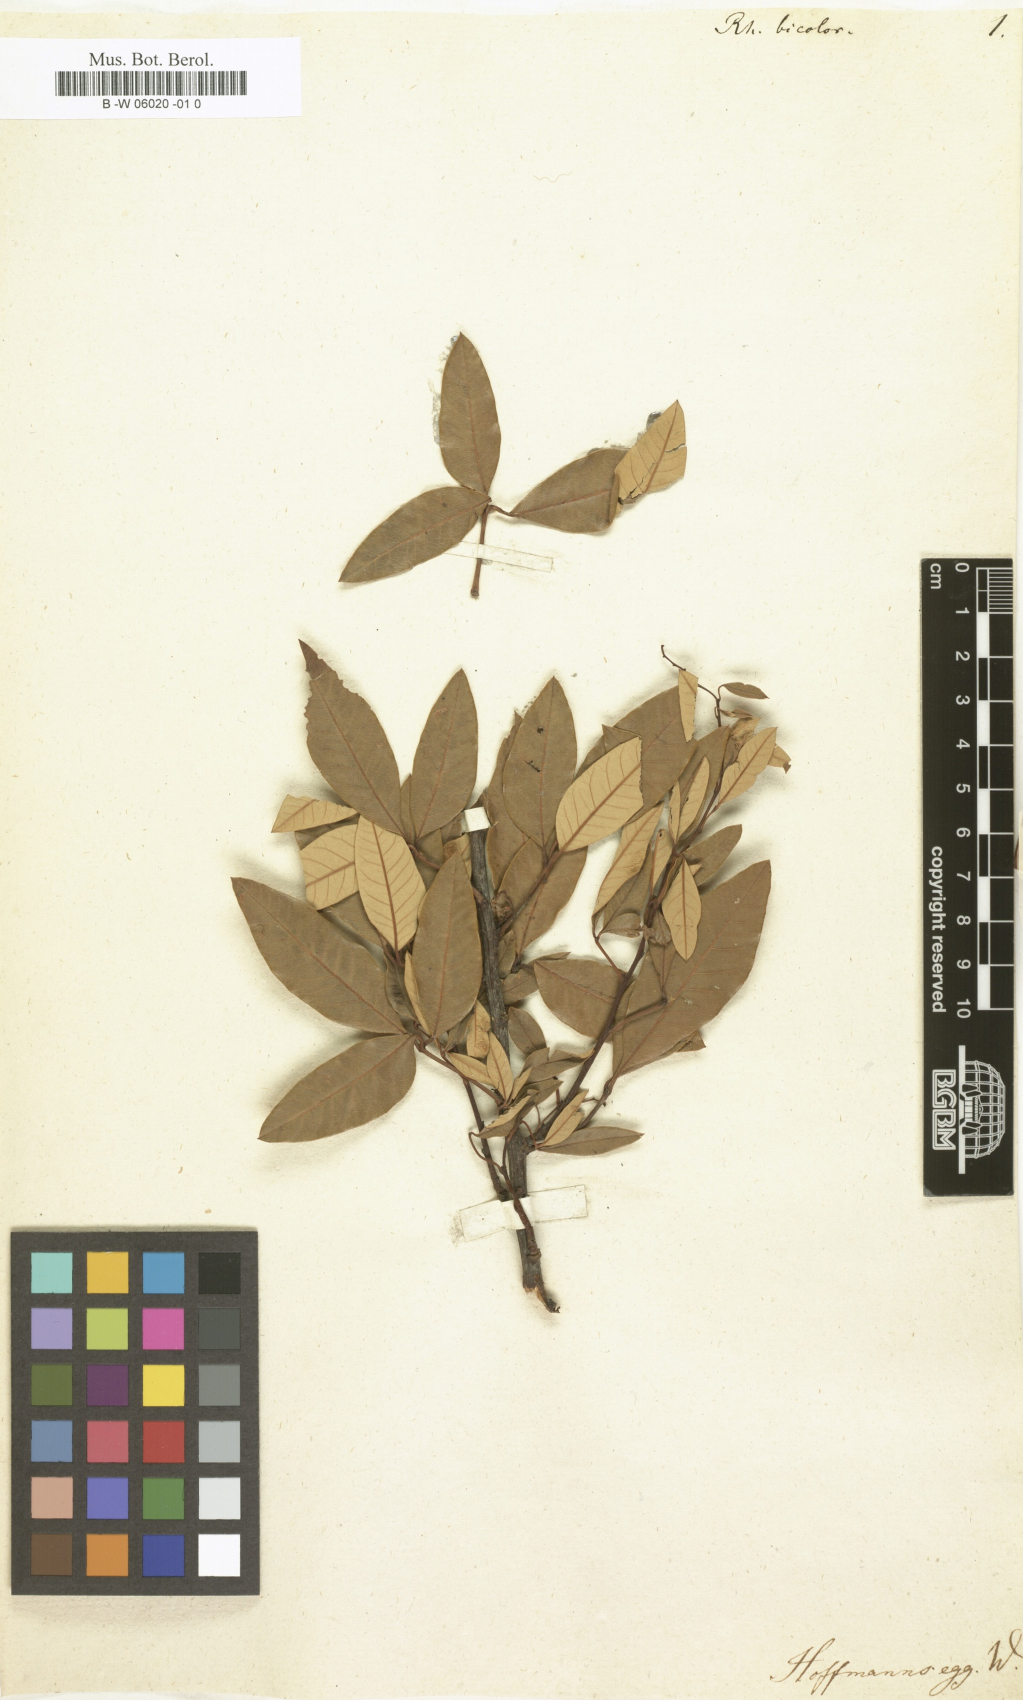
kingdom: Plantae
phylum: Tracheophyta
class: Magnoliopsida
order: Sapindales
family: Anacardiaceae
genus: Searsia
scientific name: Searsia tomentosa
